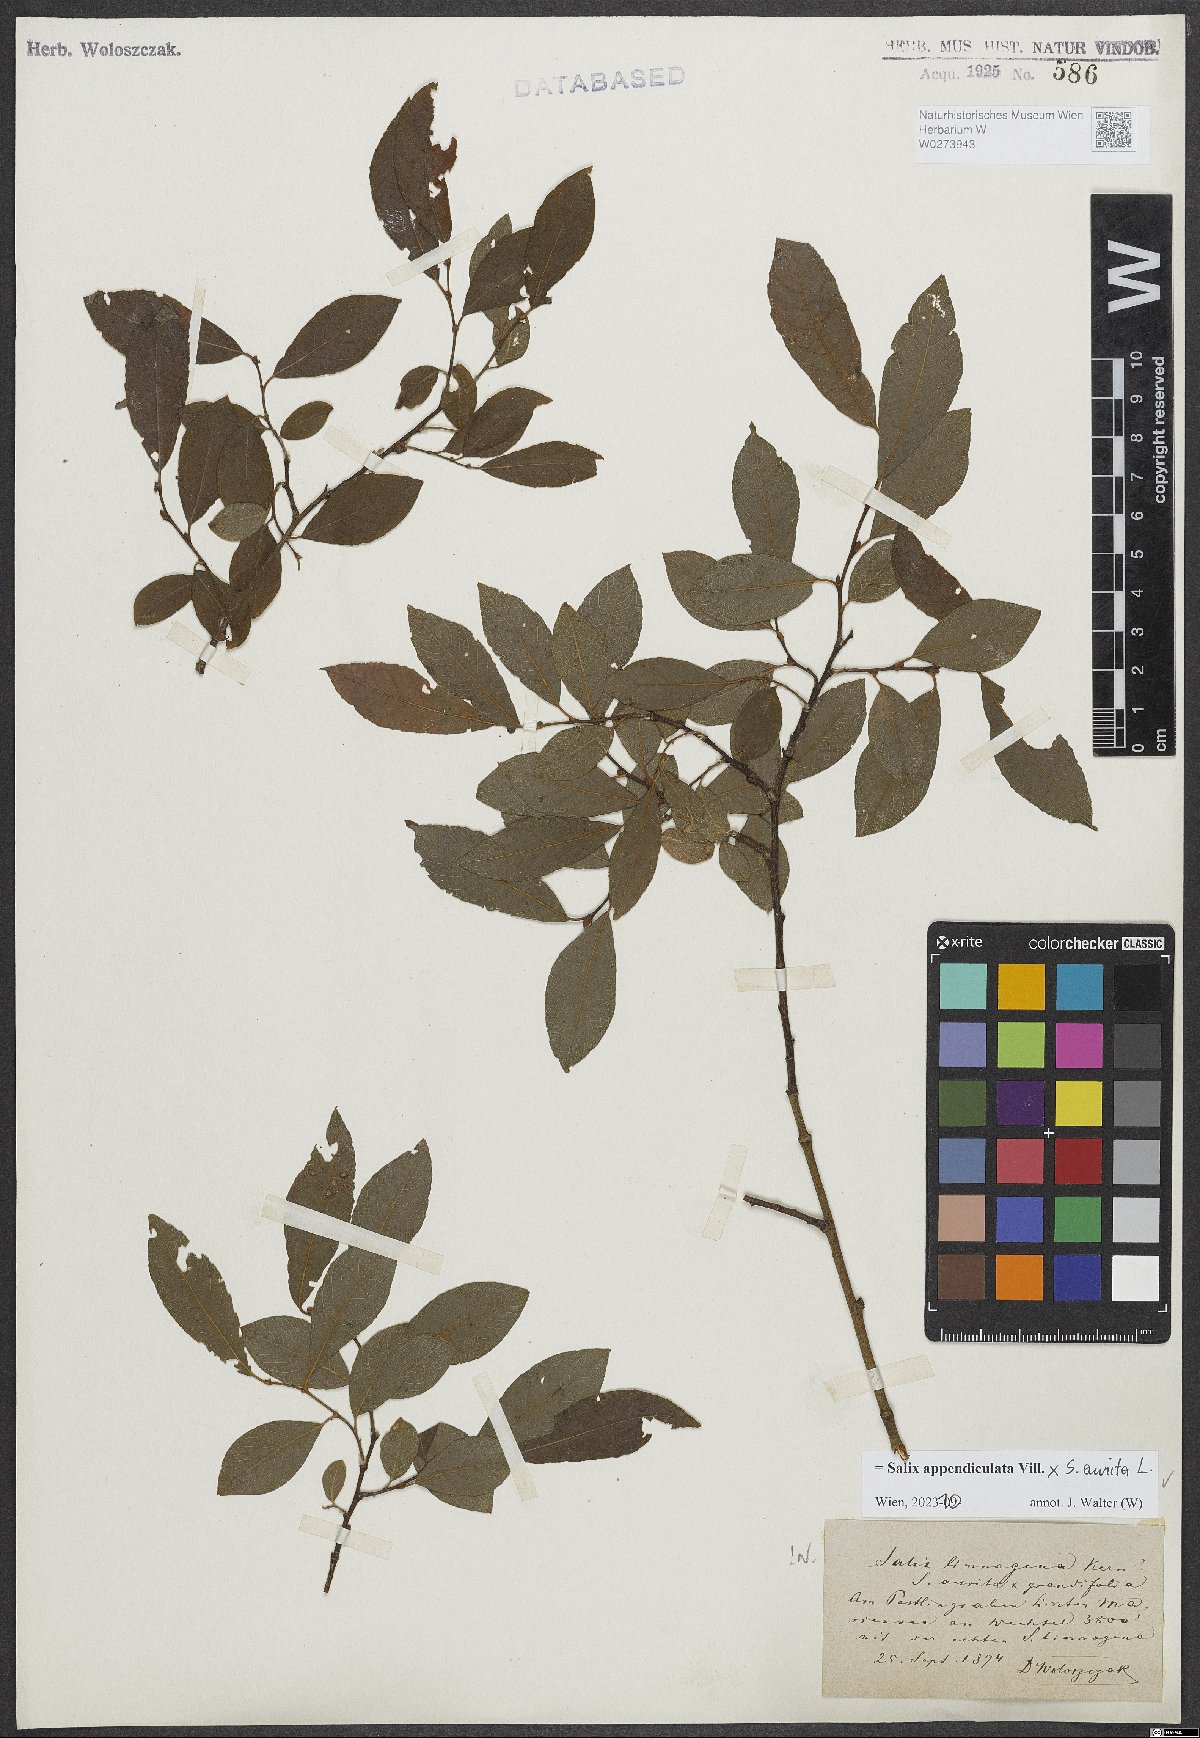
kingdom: Plantae
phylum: Tracheophyta
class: Magnoliopsida
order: Malpighiales
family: Salicaceae
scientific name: Salicaceae
